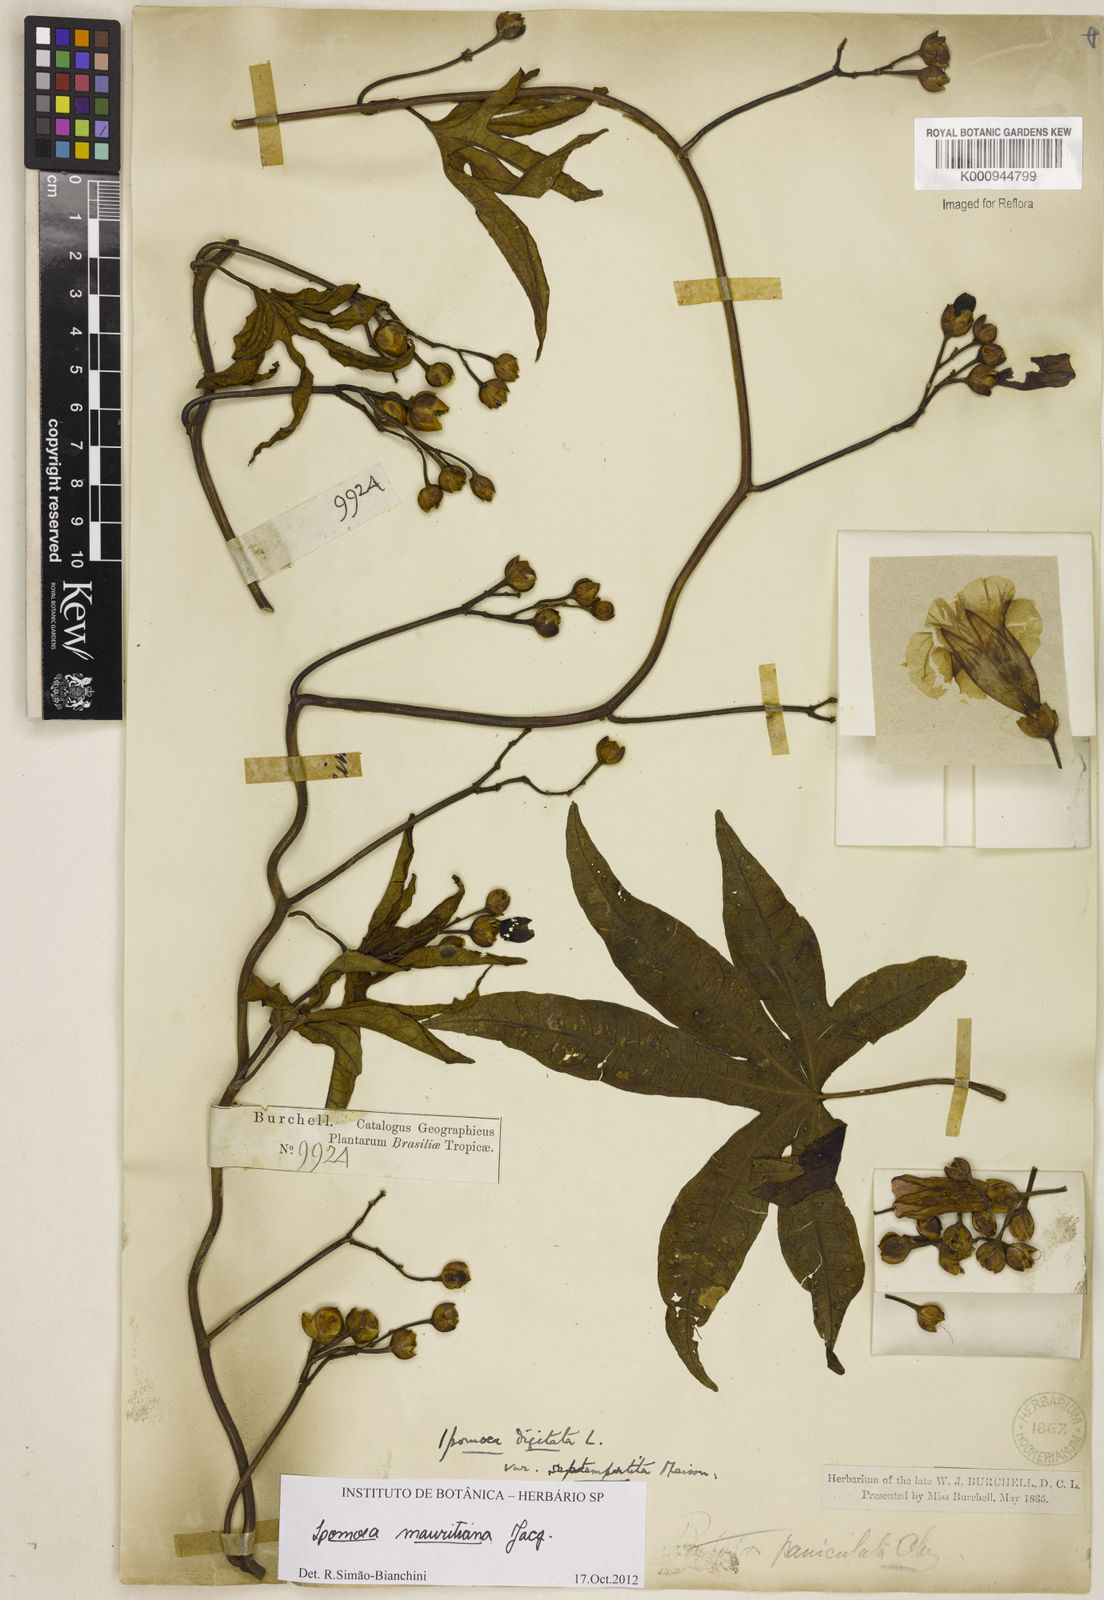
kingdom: Plantae
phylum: Tracheophyta
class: Magnoliopsida
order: Solanales
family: Convolvulaceae
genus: Ipomoea
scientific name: Ipomoea digitata
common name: Finger-leaf morning-glory
